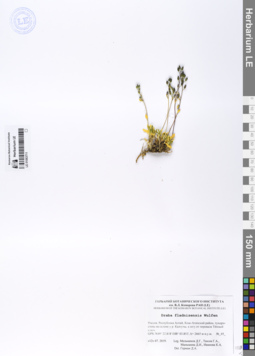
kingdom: Plantae
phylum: Tracheophyta
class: Magnoliopsida
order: Brassicales
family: Brassicaceae
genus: Draba
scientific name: Draba fladnizensis
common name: Austrian draba
